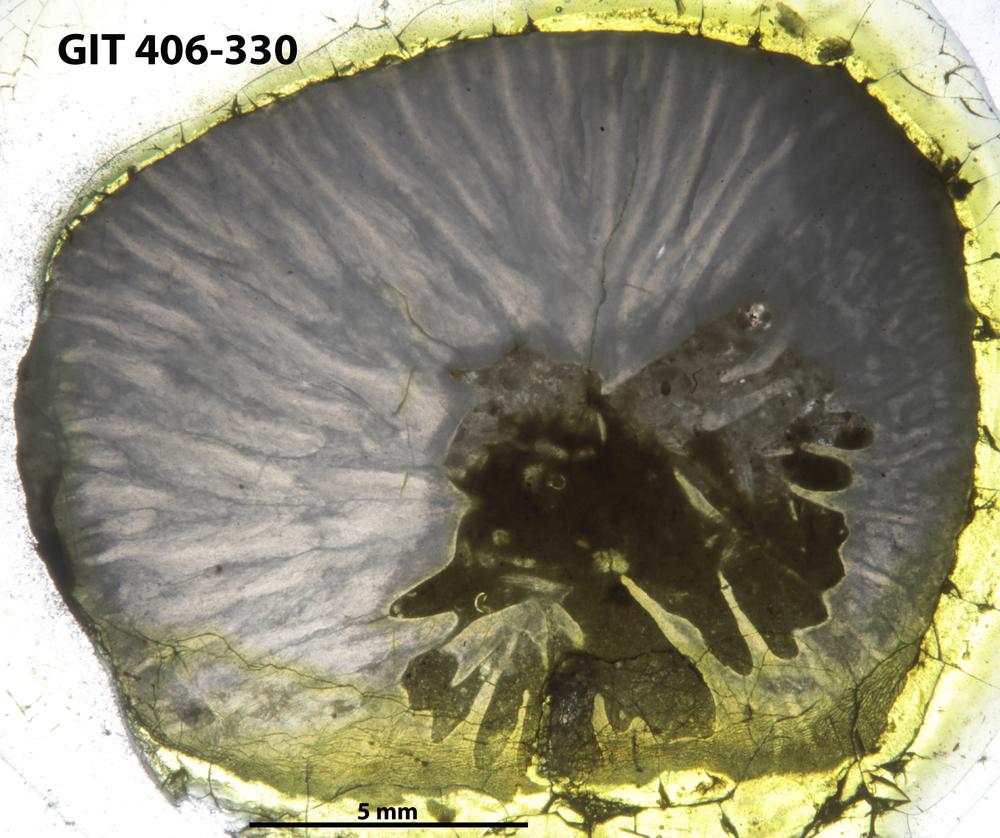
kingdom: Animalia
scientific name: Animalia
